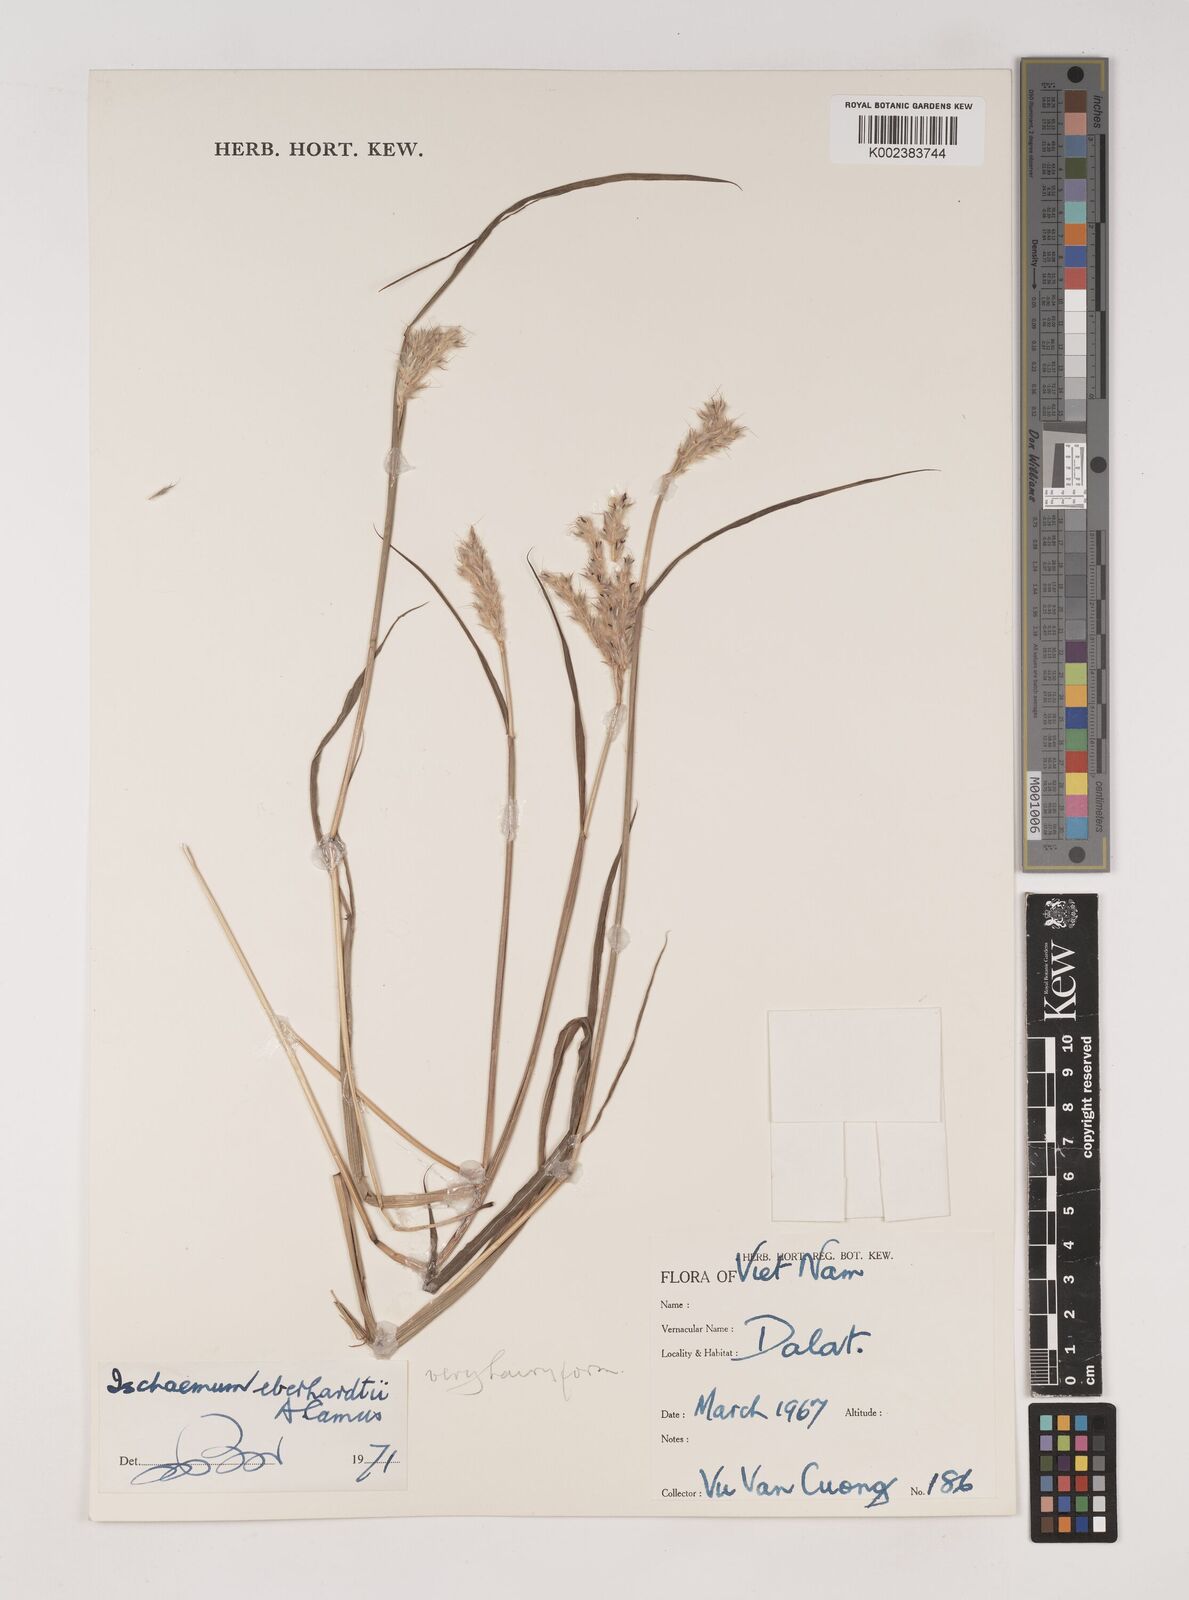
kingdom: Plantae
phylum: Tracheophyta
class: Liliopsida
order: Poales
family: Poaceae
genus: Ischaemum
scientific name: Ischaemum eberhardtii
